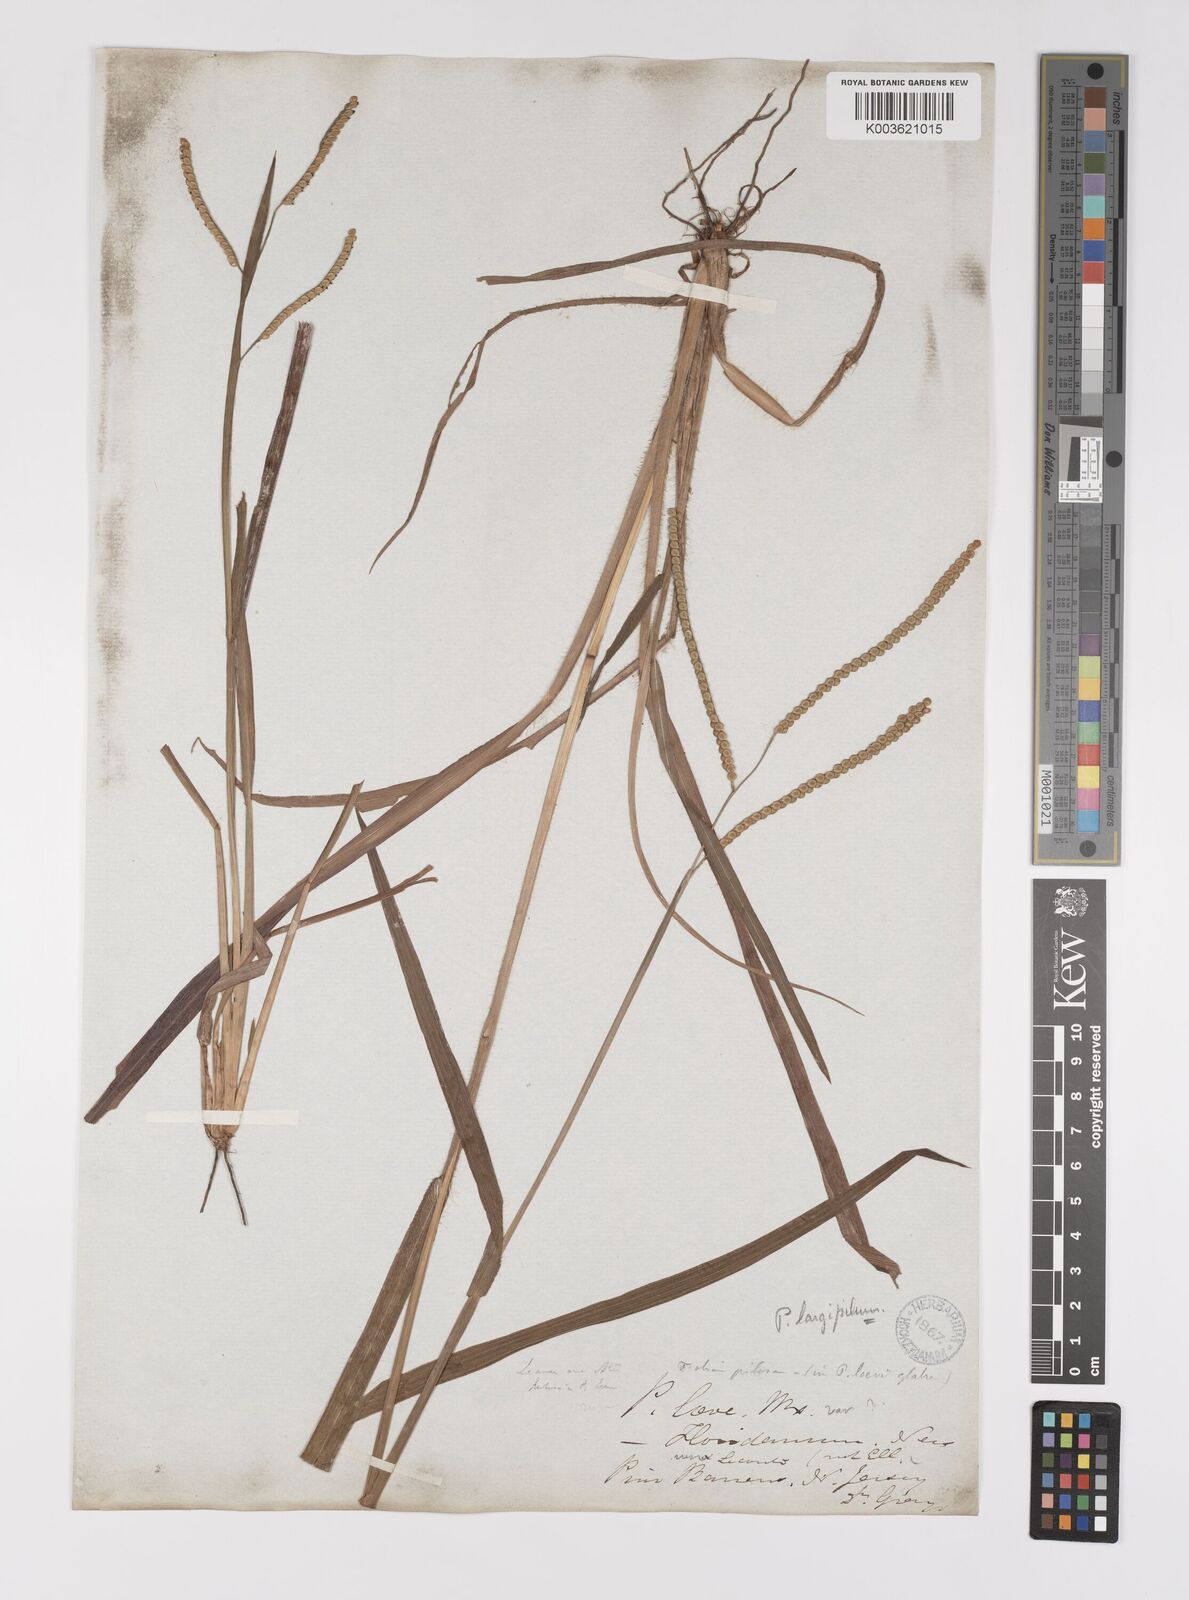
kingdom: Plantae
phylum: Tracheophyta
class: Liliopsida
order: Poales
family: Poaceae
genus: Paspalum
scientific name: Paspalum laeve
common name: Field paspalum
